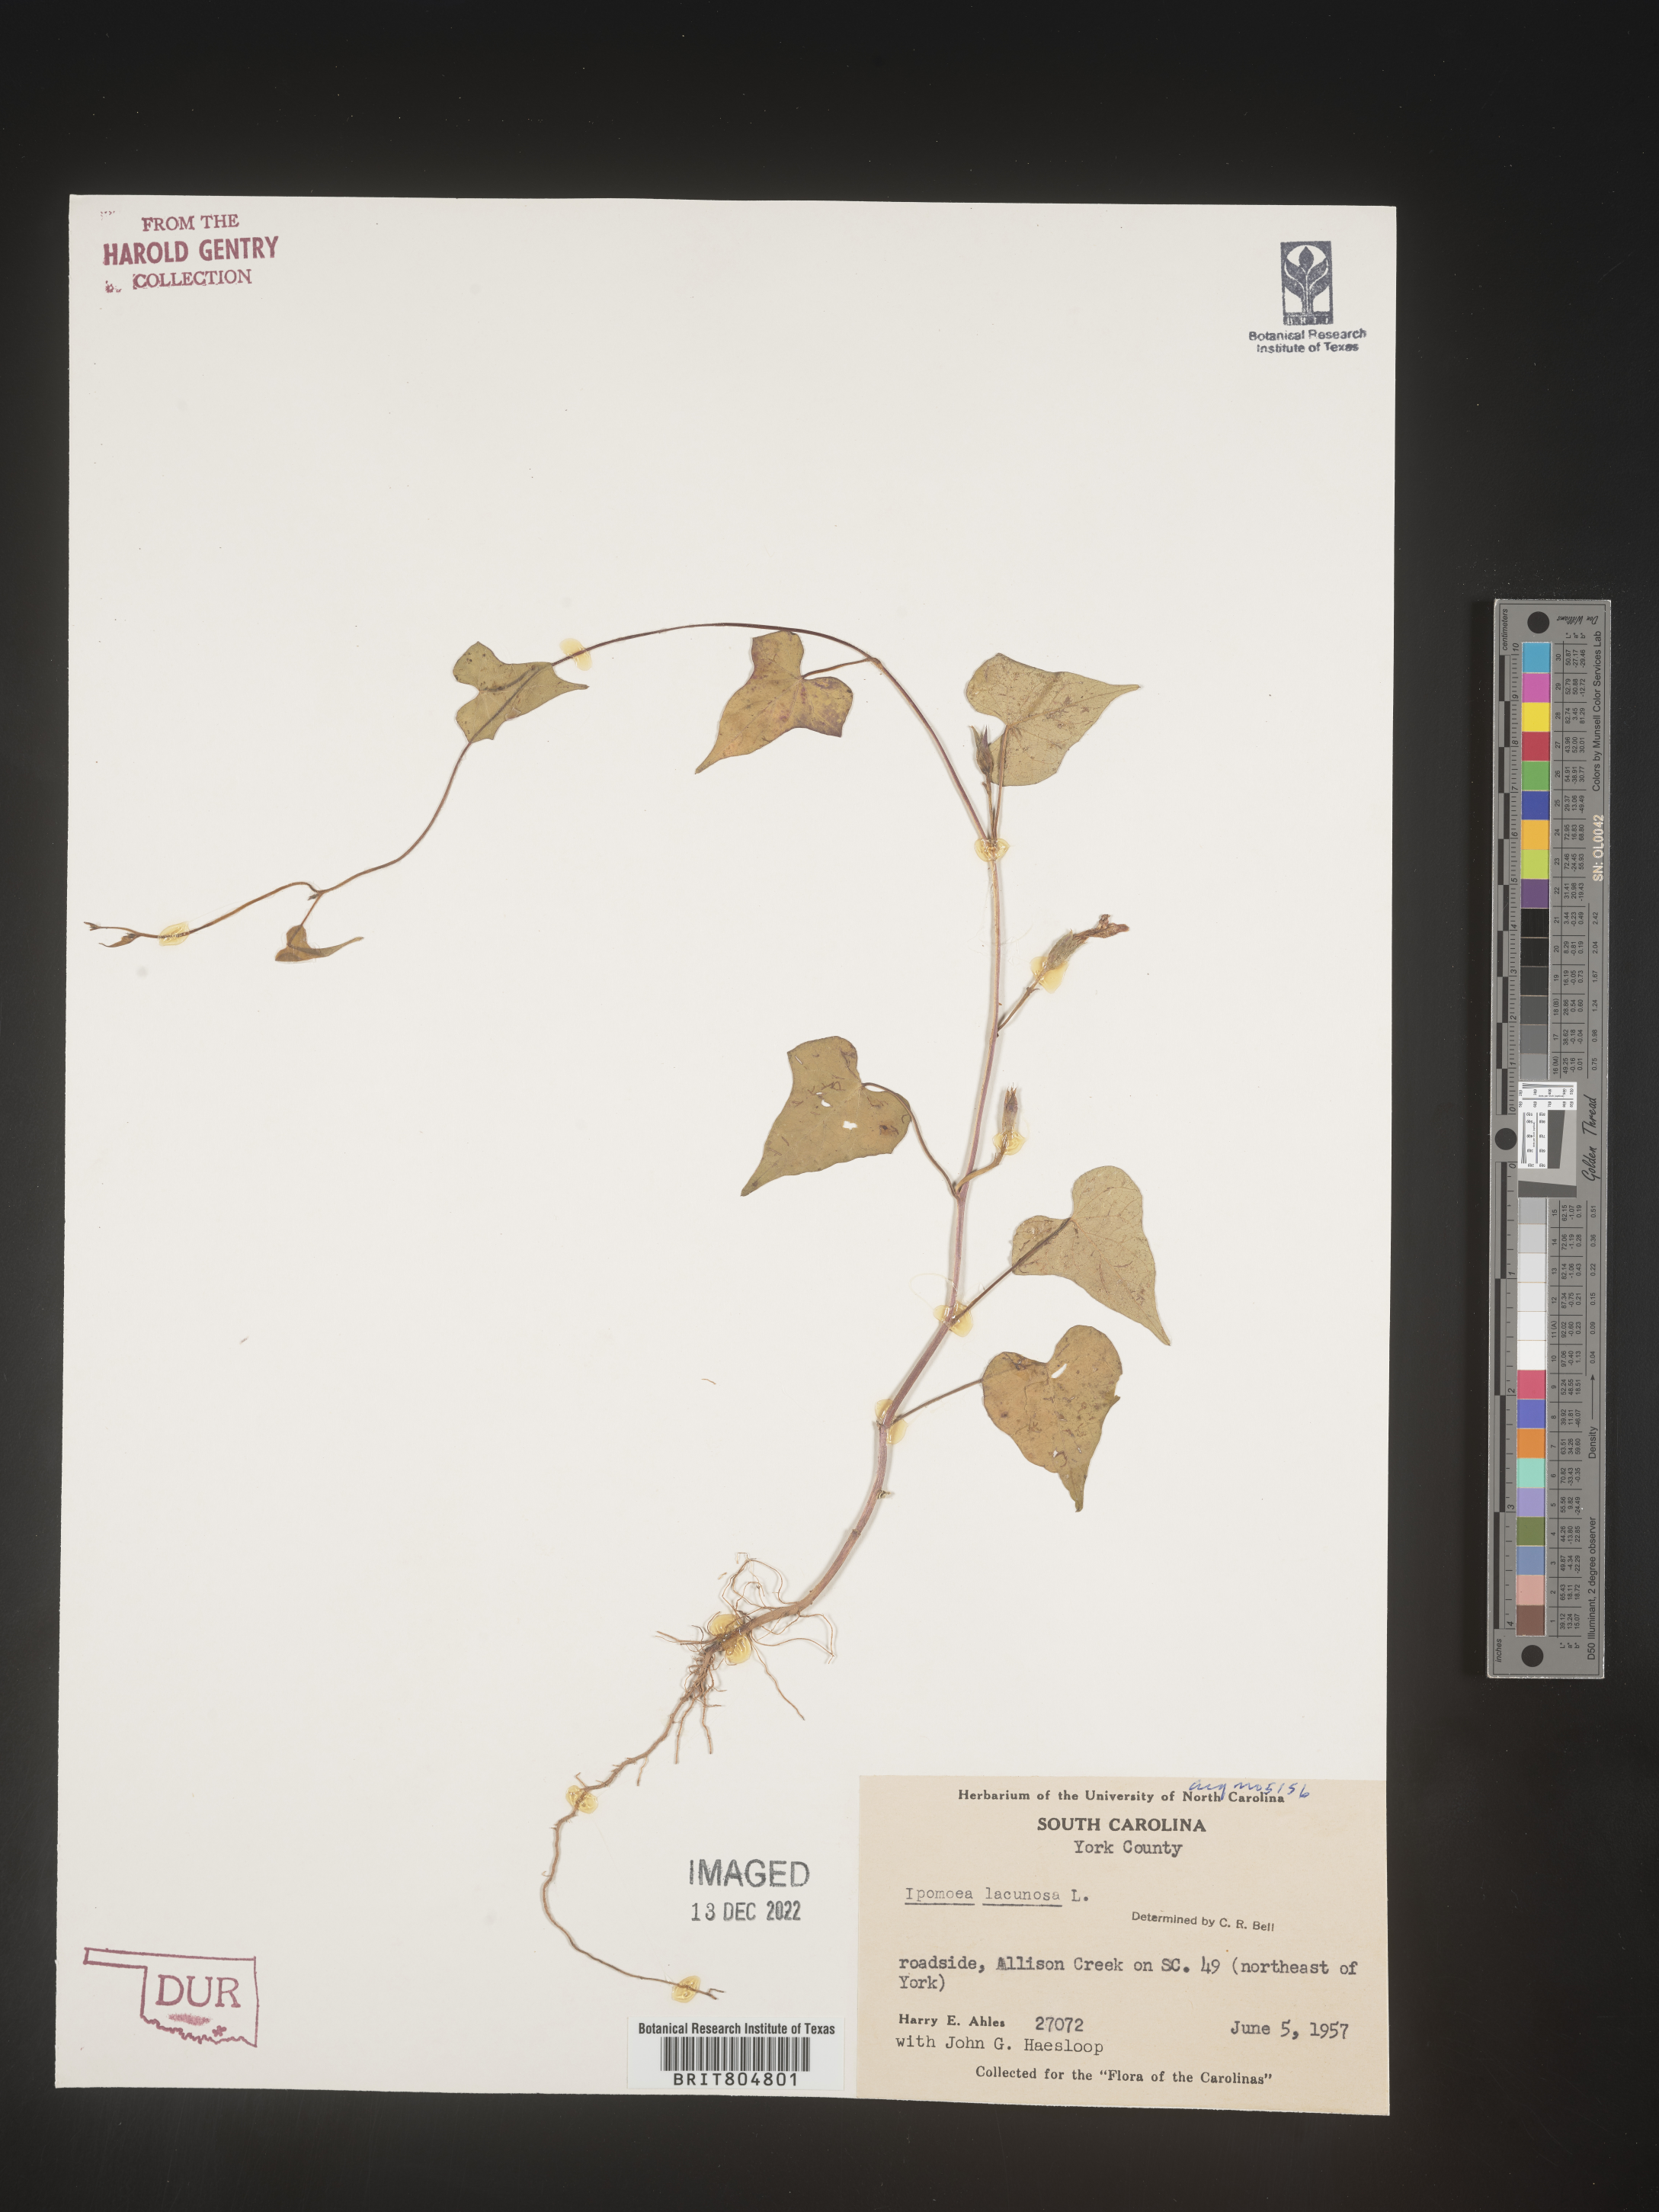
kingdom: Plantae
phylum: Tracheophyta
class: Magnoliopsida
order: Solanales
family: Convolvulaceae
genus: Ipomoea
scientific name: Ipomoea lacunosa
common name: White morning-glory
